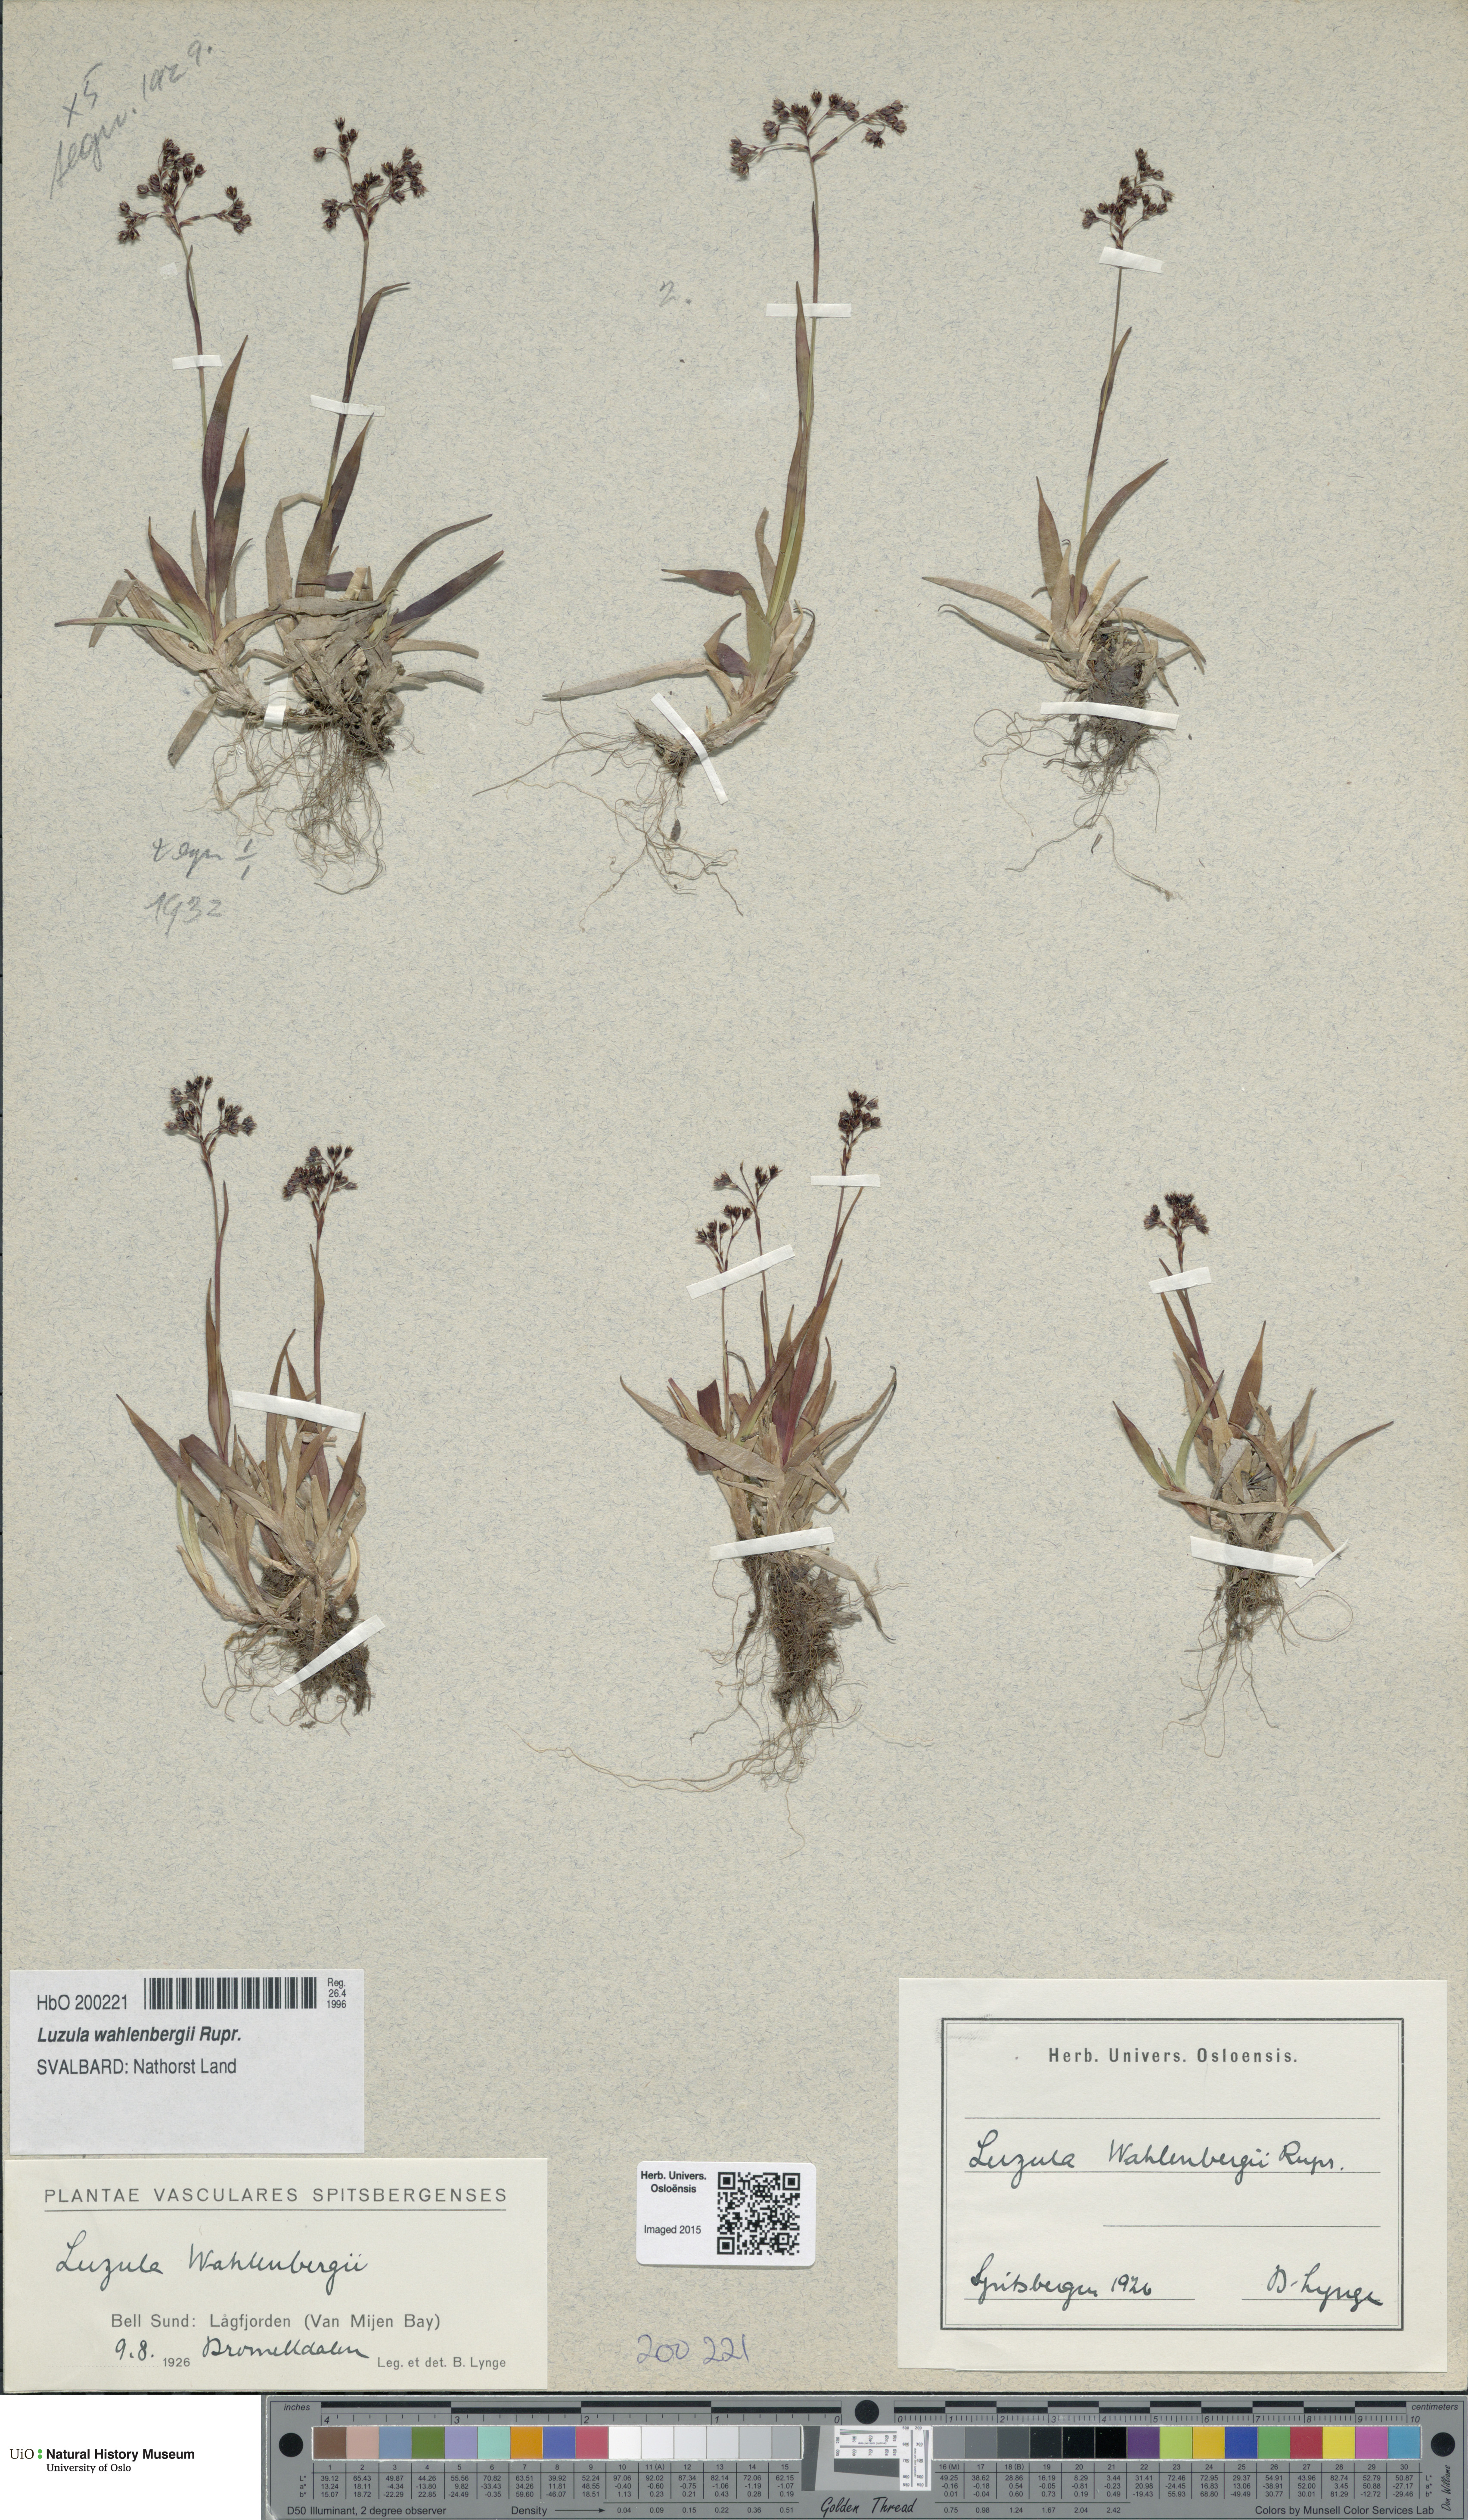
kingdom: Plantae
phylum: Tracheophyta
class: Liliopsida
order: Poales
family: Juncaceae
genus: Luzula
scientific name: Luzula wahlenbergii
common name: Wahlenberg's wood-rush
